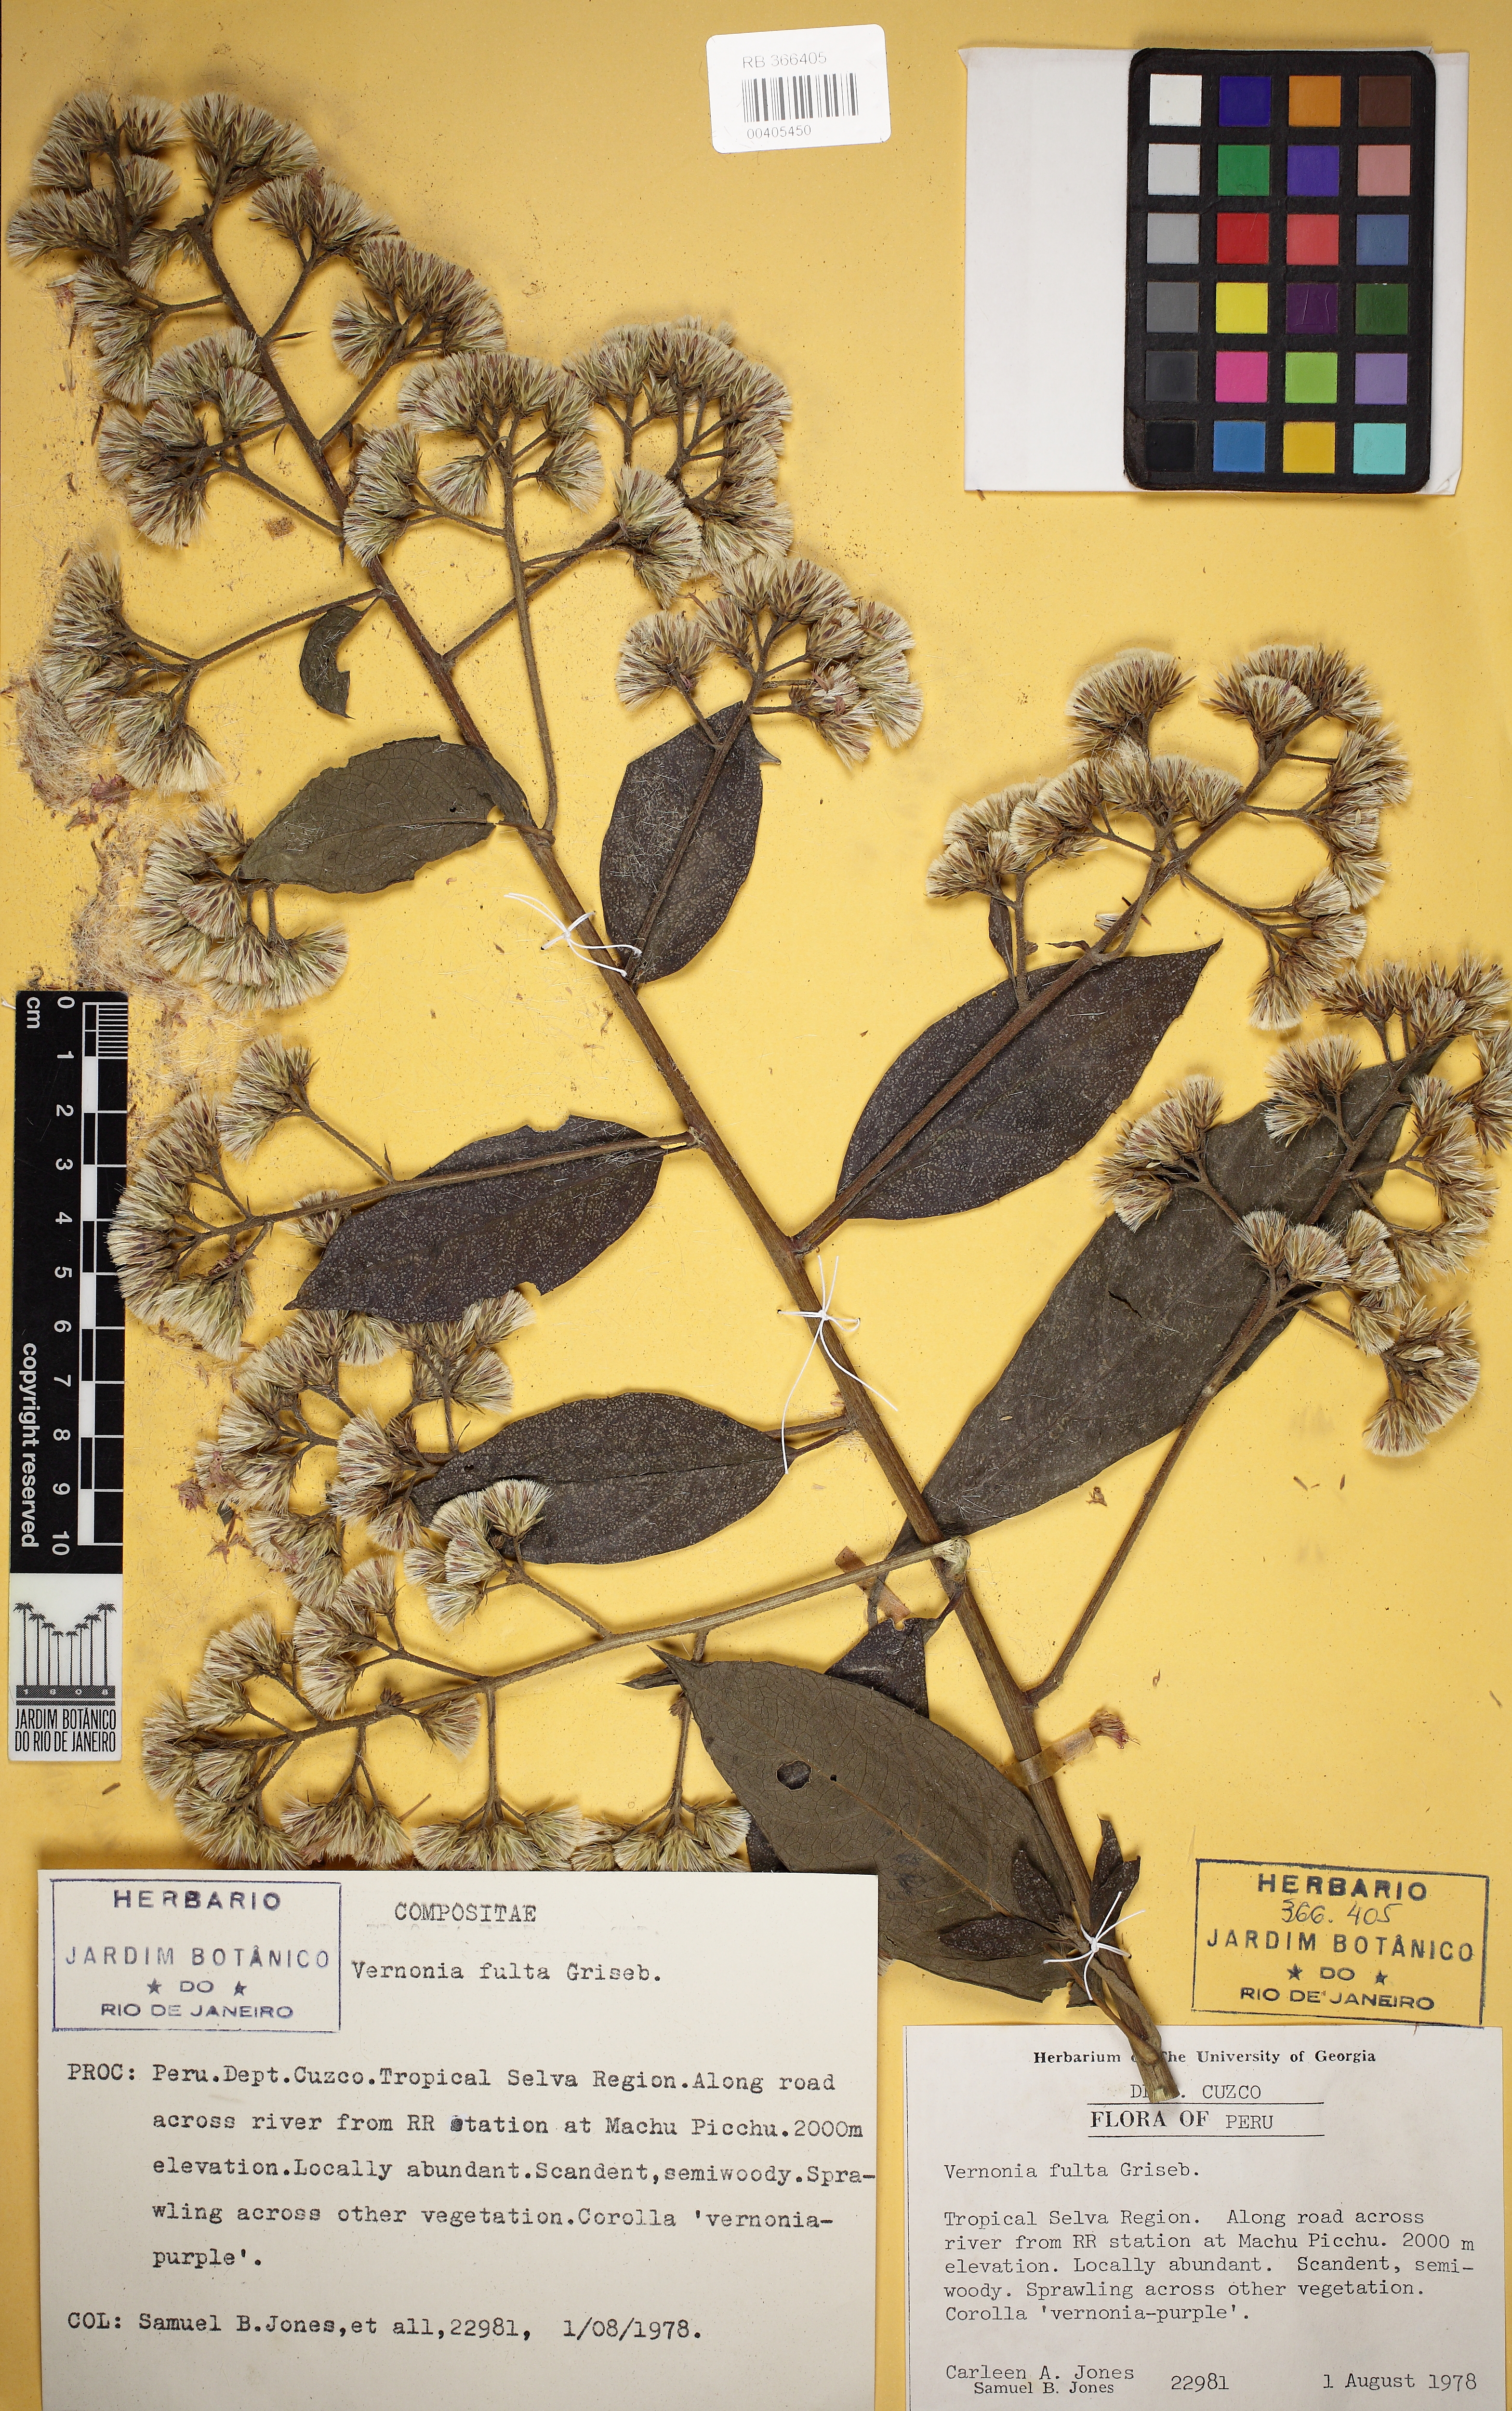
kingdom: Plantae
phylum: Tracheophyta
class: Magnoliopsida
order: Asterales
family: Asteraceae
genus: Quechualia
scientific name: Quechualia fulta
